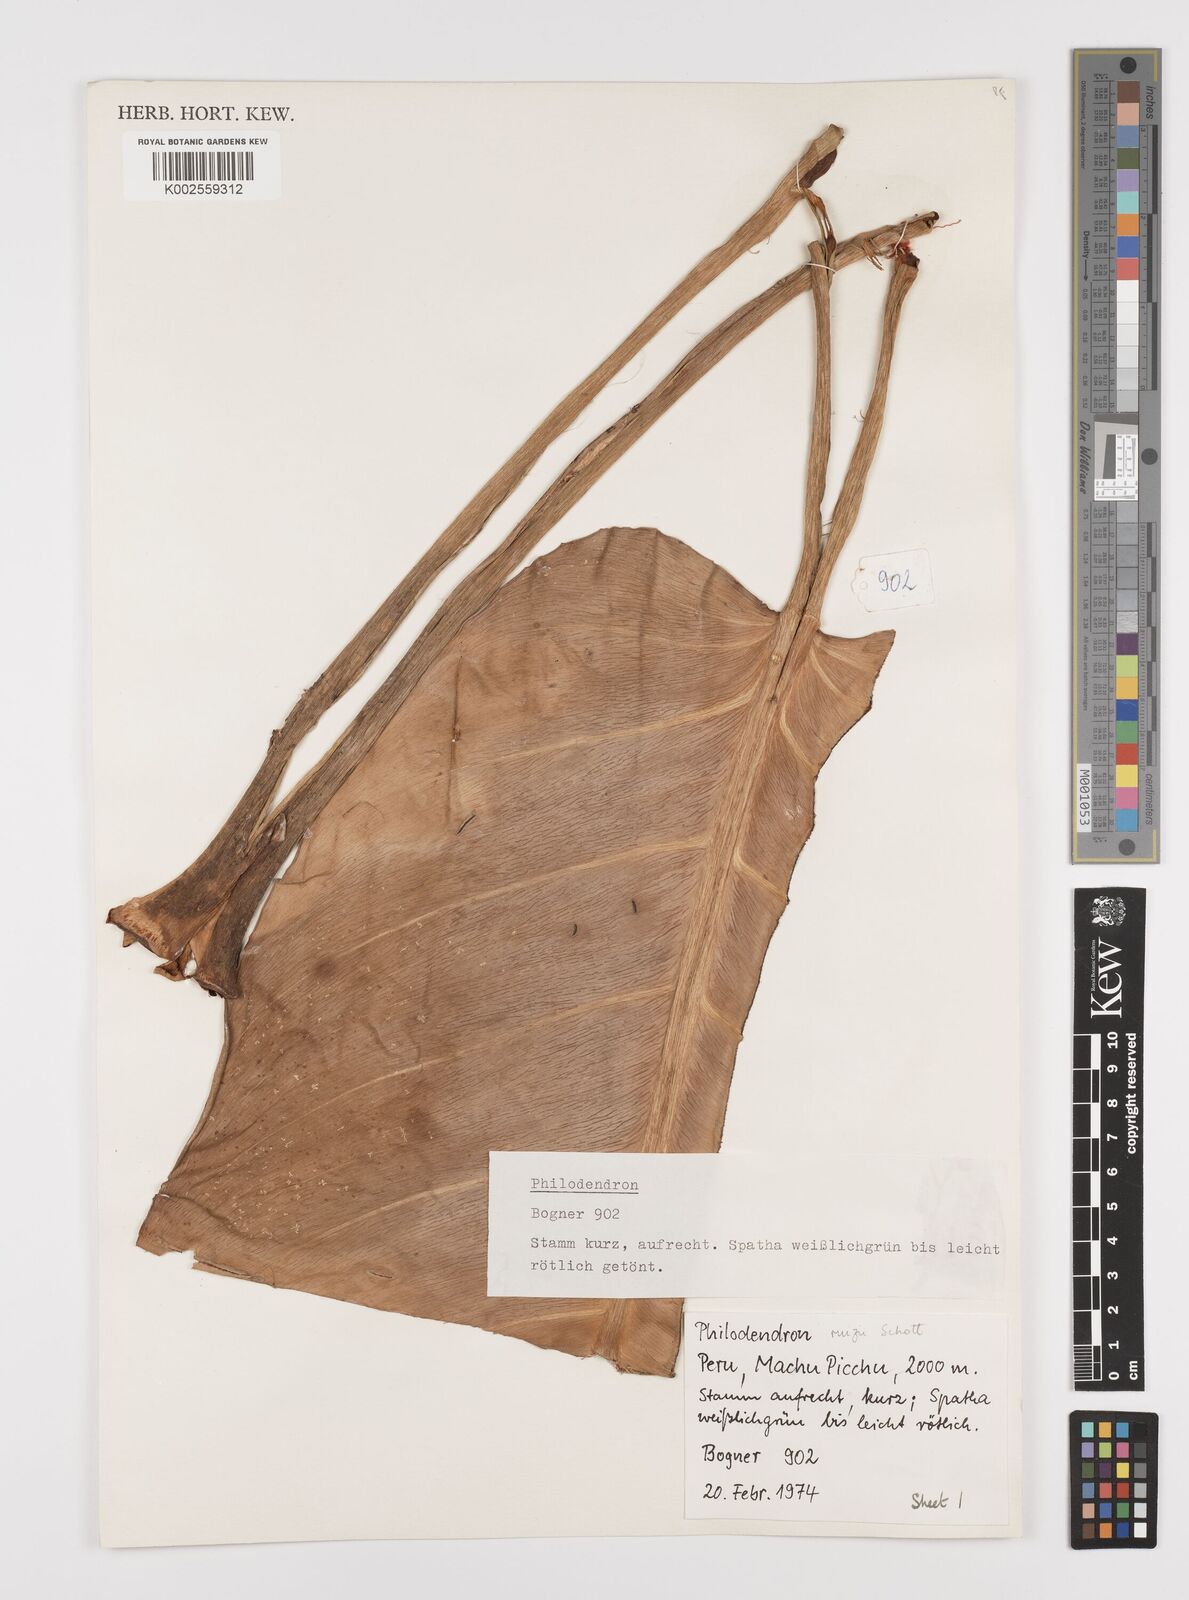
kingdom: Plantae
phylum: Tracheophyta
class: Liliopsida
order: Alismatales
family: Araceae
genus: Philodendron
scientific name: Philodendron ruizii
